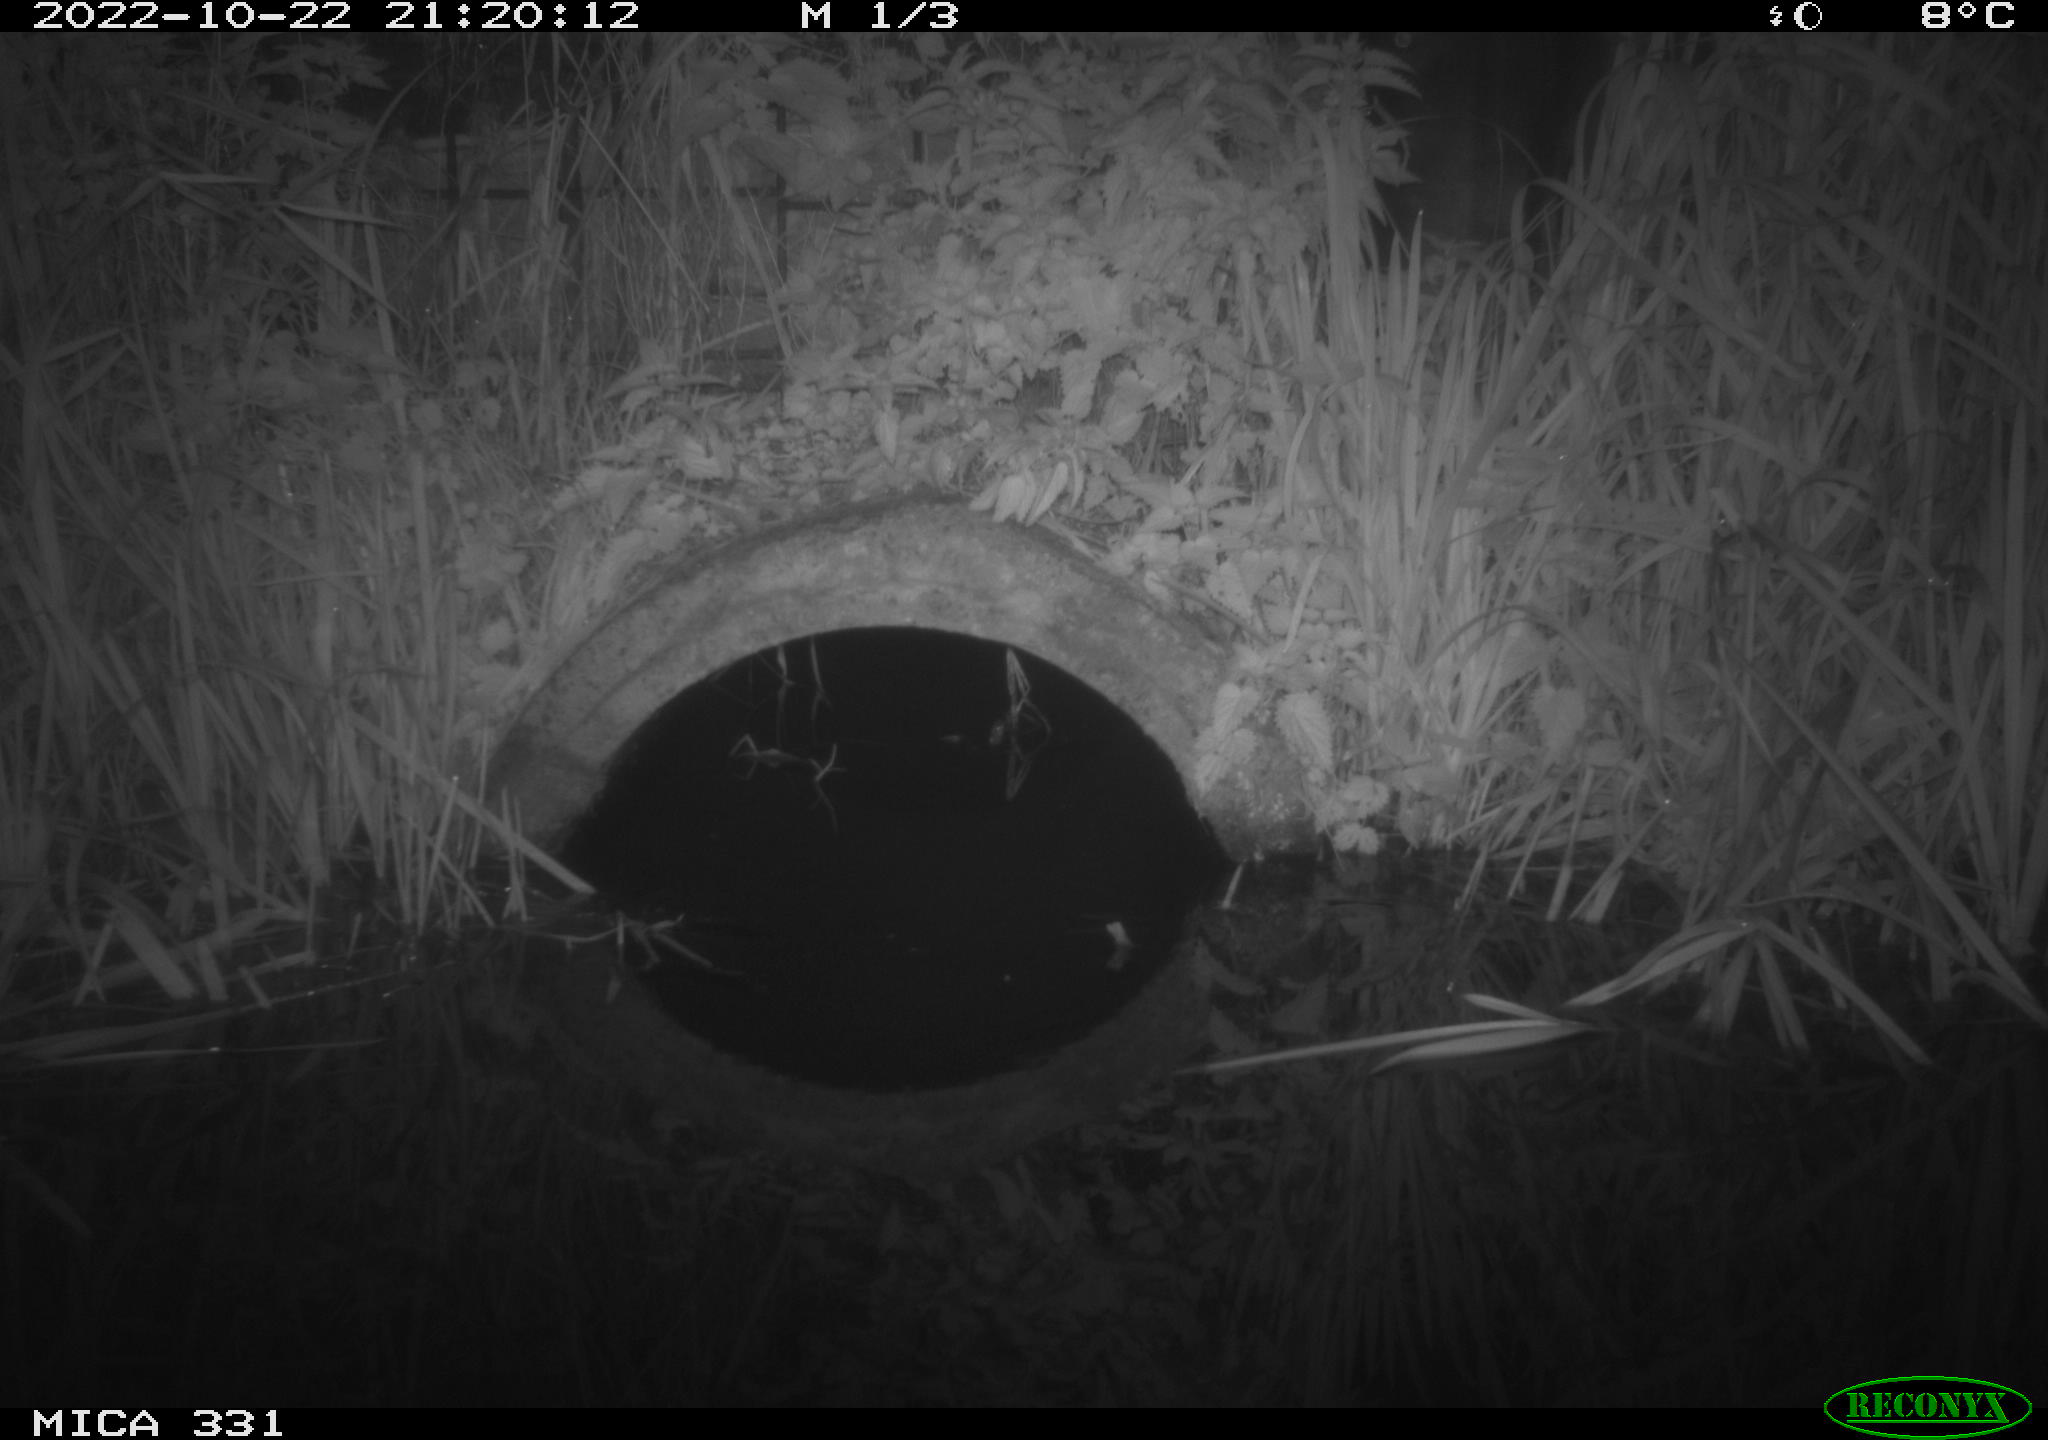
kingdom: Animalia
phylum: Chordata
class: Mammalia
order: Rodentia
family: Muridae
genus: Rattus
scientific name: Rattus norvegicus
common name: Brown rat
